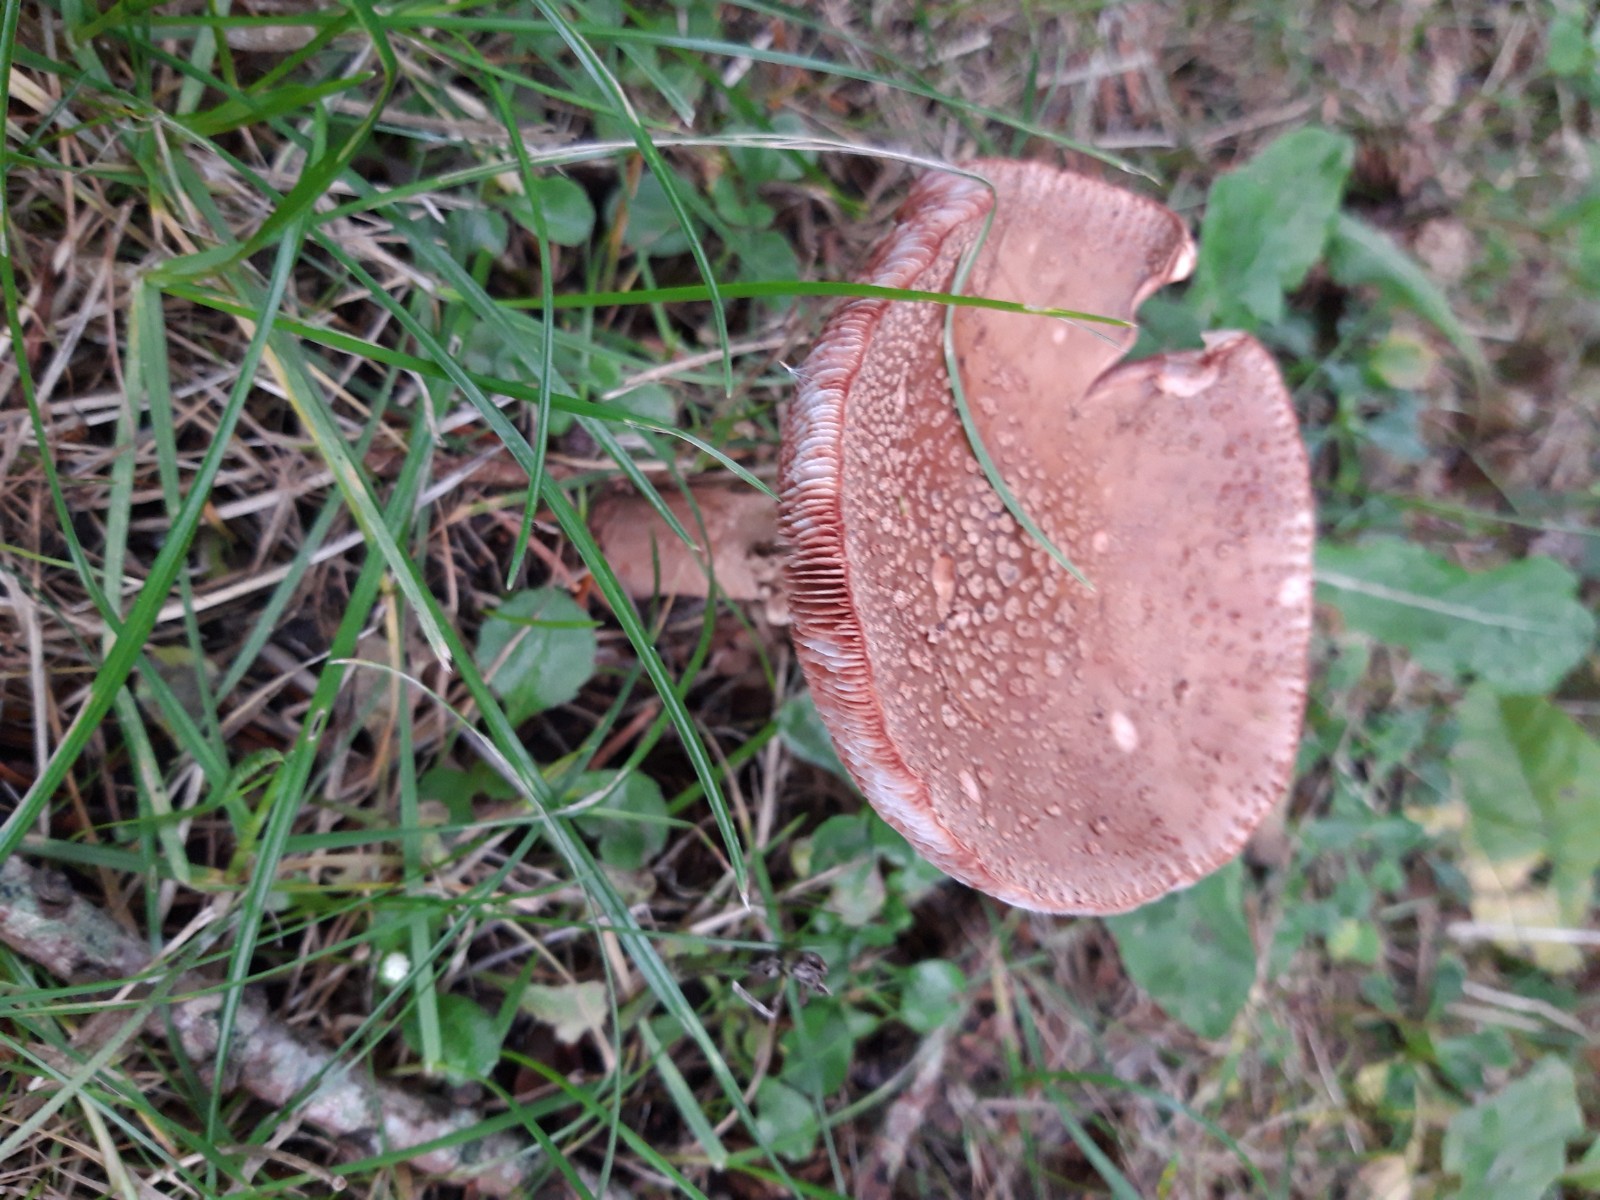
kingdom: Fungi
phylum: Basidiomycota
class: Agaricomycetes
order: Agaricales
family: Amanitaceae
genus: Amanita
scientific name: Amanita rubescens
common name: rødmende fluesvamp
